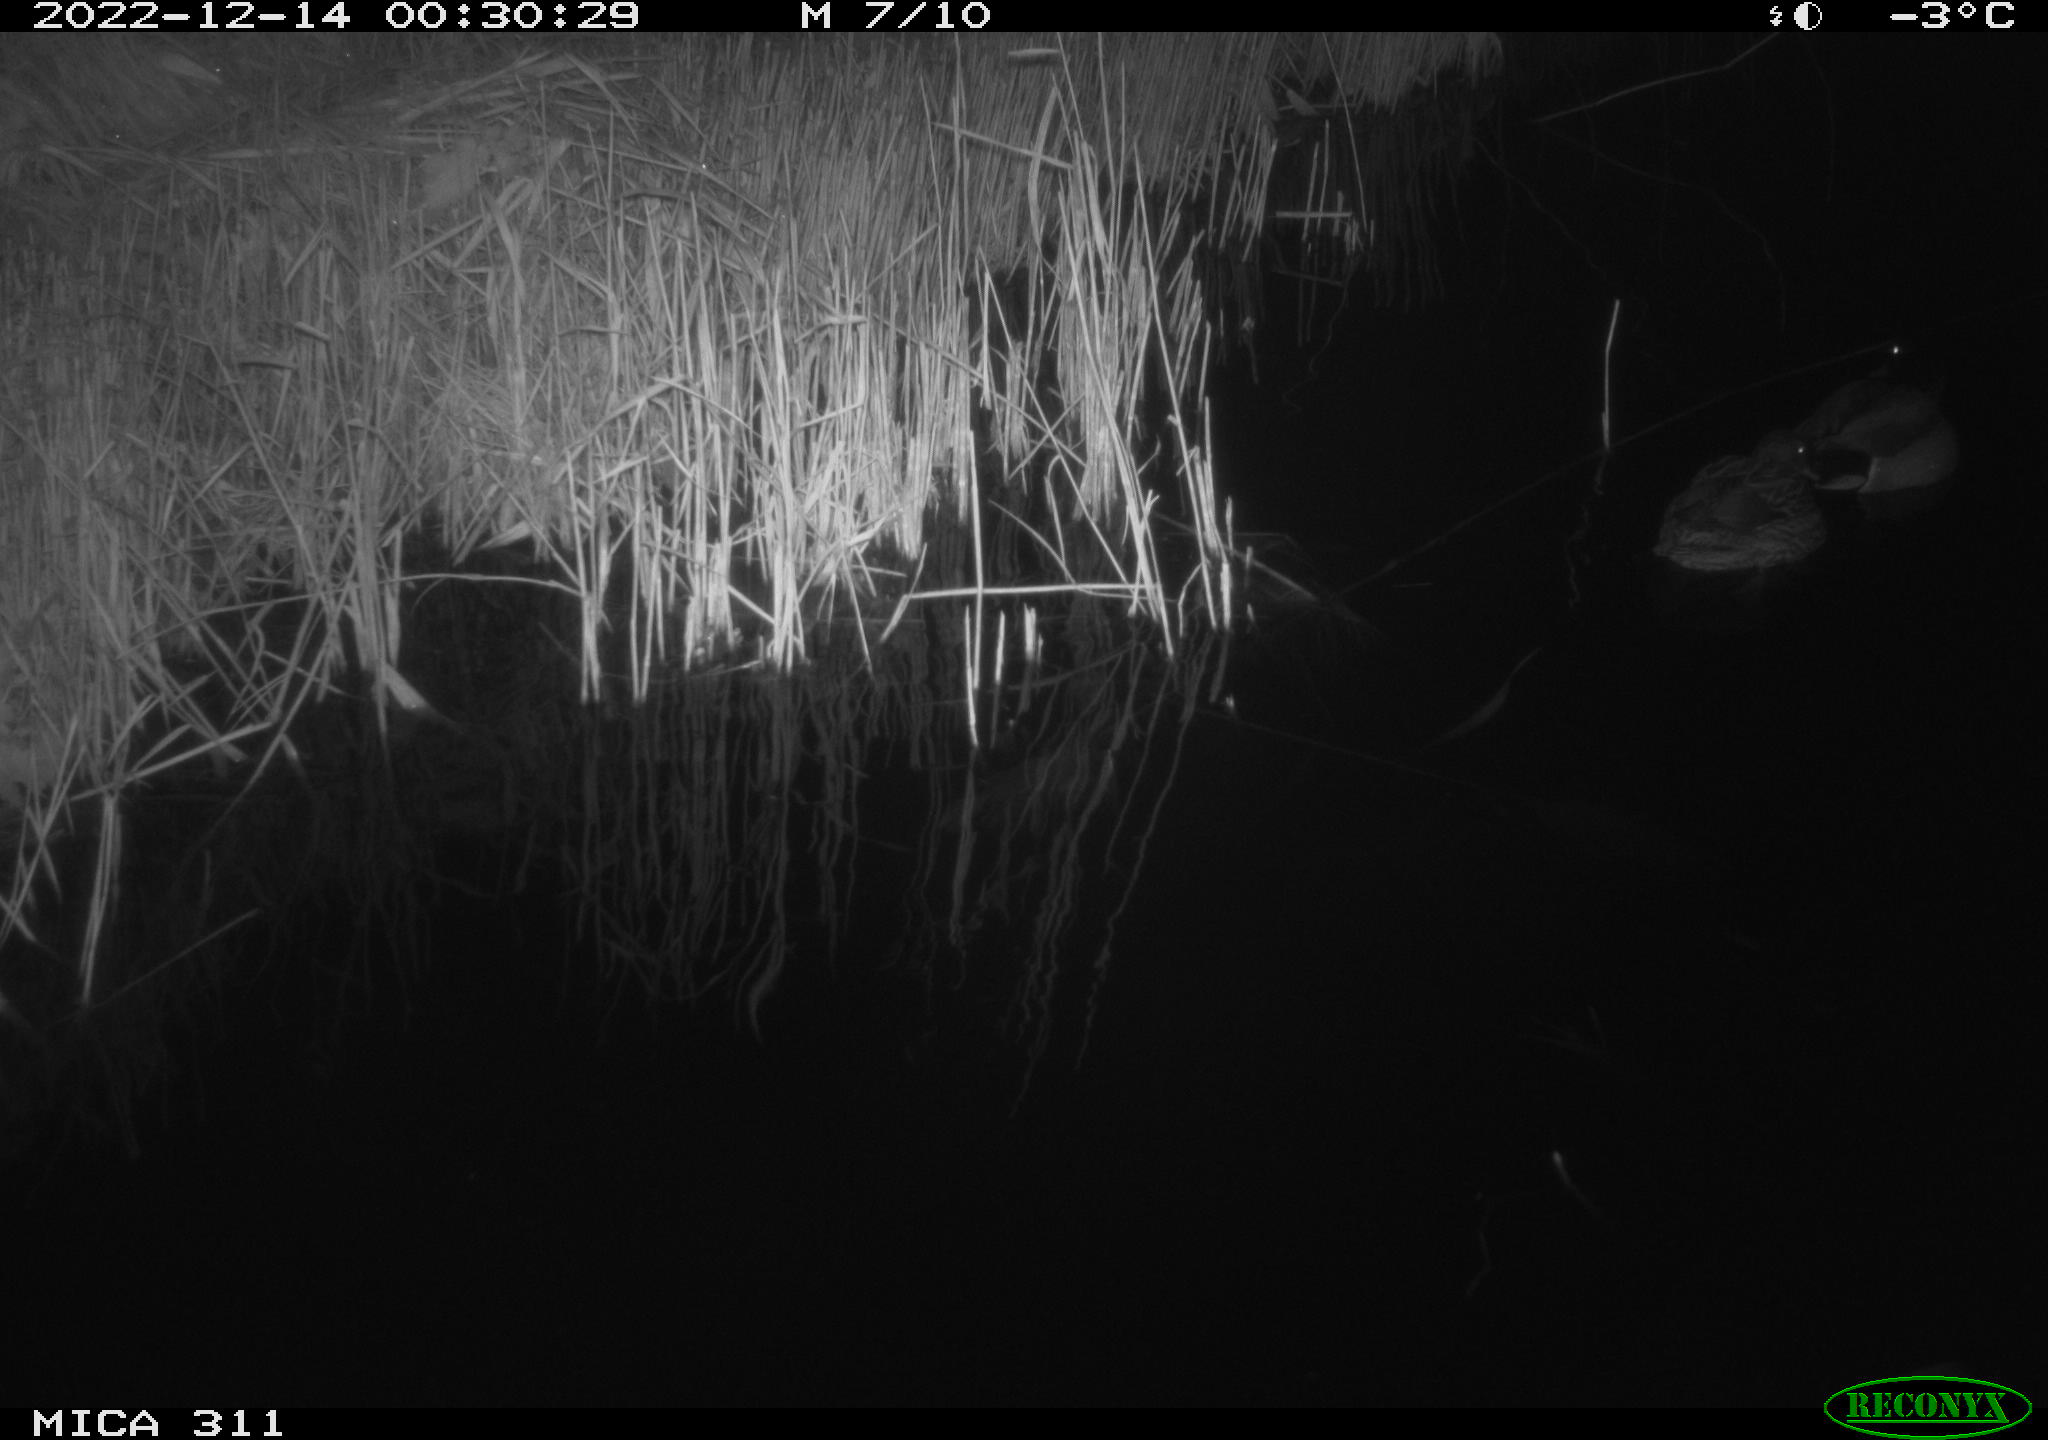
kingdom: Animalia
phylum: Chordata
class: Aves
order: Anseriformes
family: Anatidae
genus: Anas
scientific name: Anas
